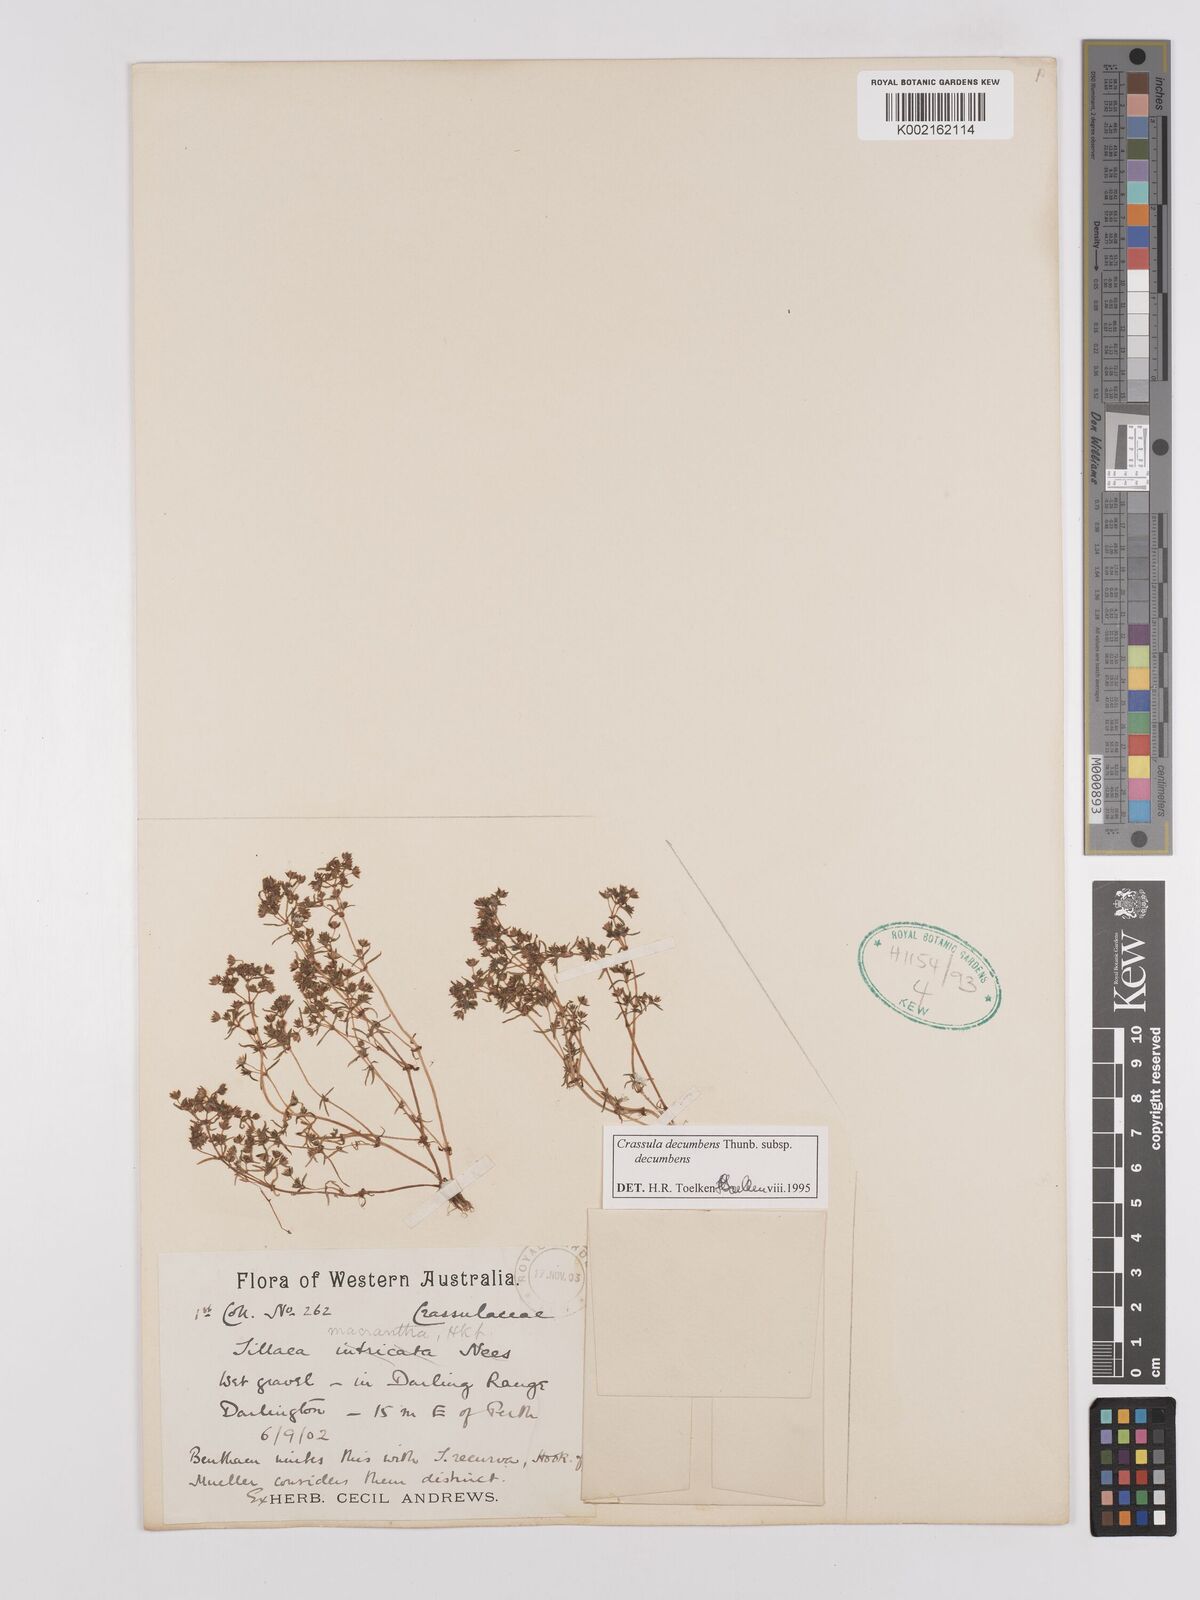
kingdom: Plantae
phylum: Tracheophyta
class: Magnoliopsida
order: Saxifragales
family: Crassulaceae
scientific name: Crassulaceae
